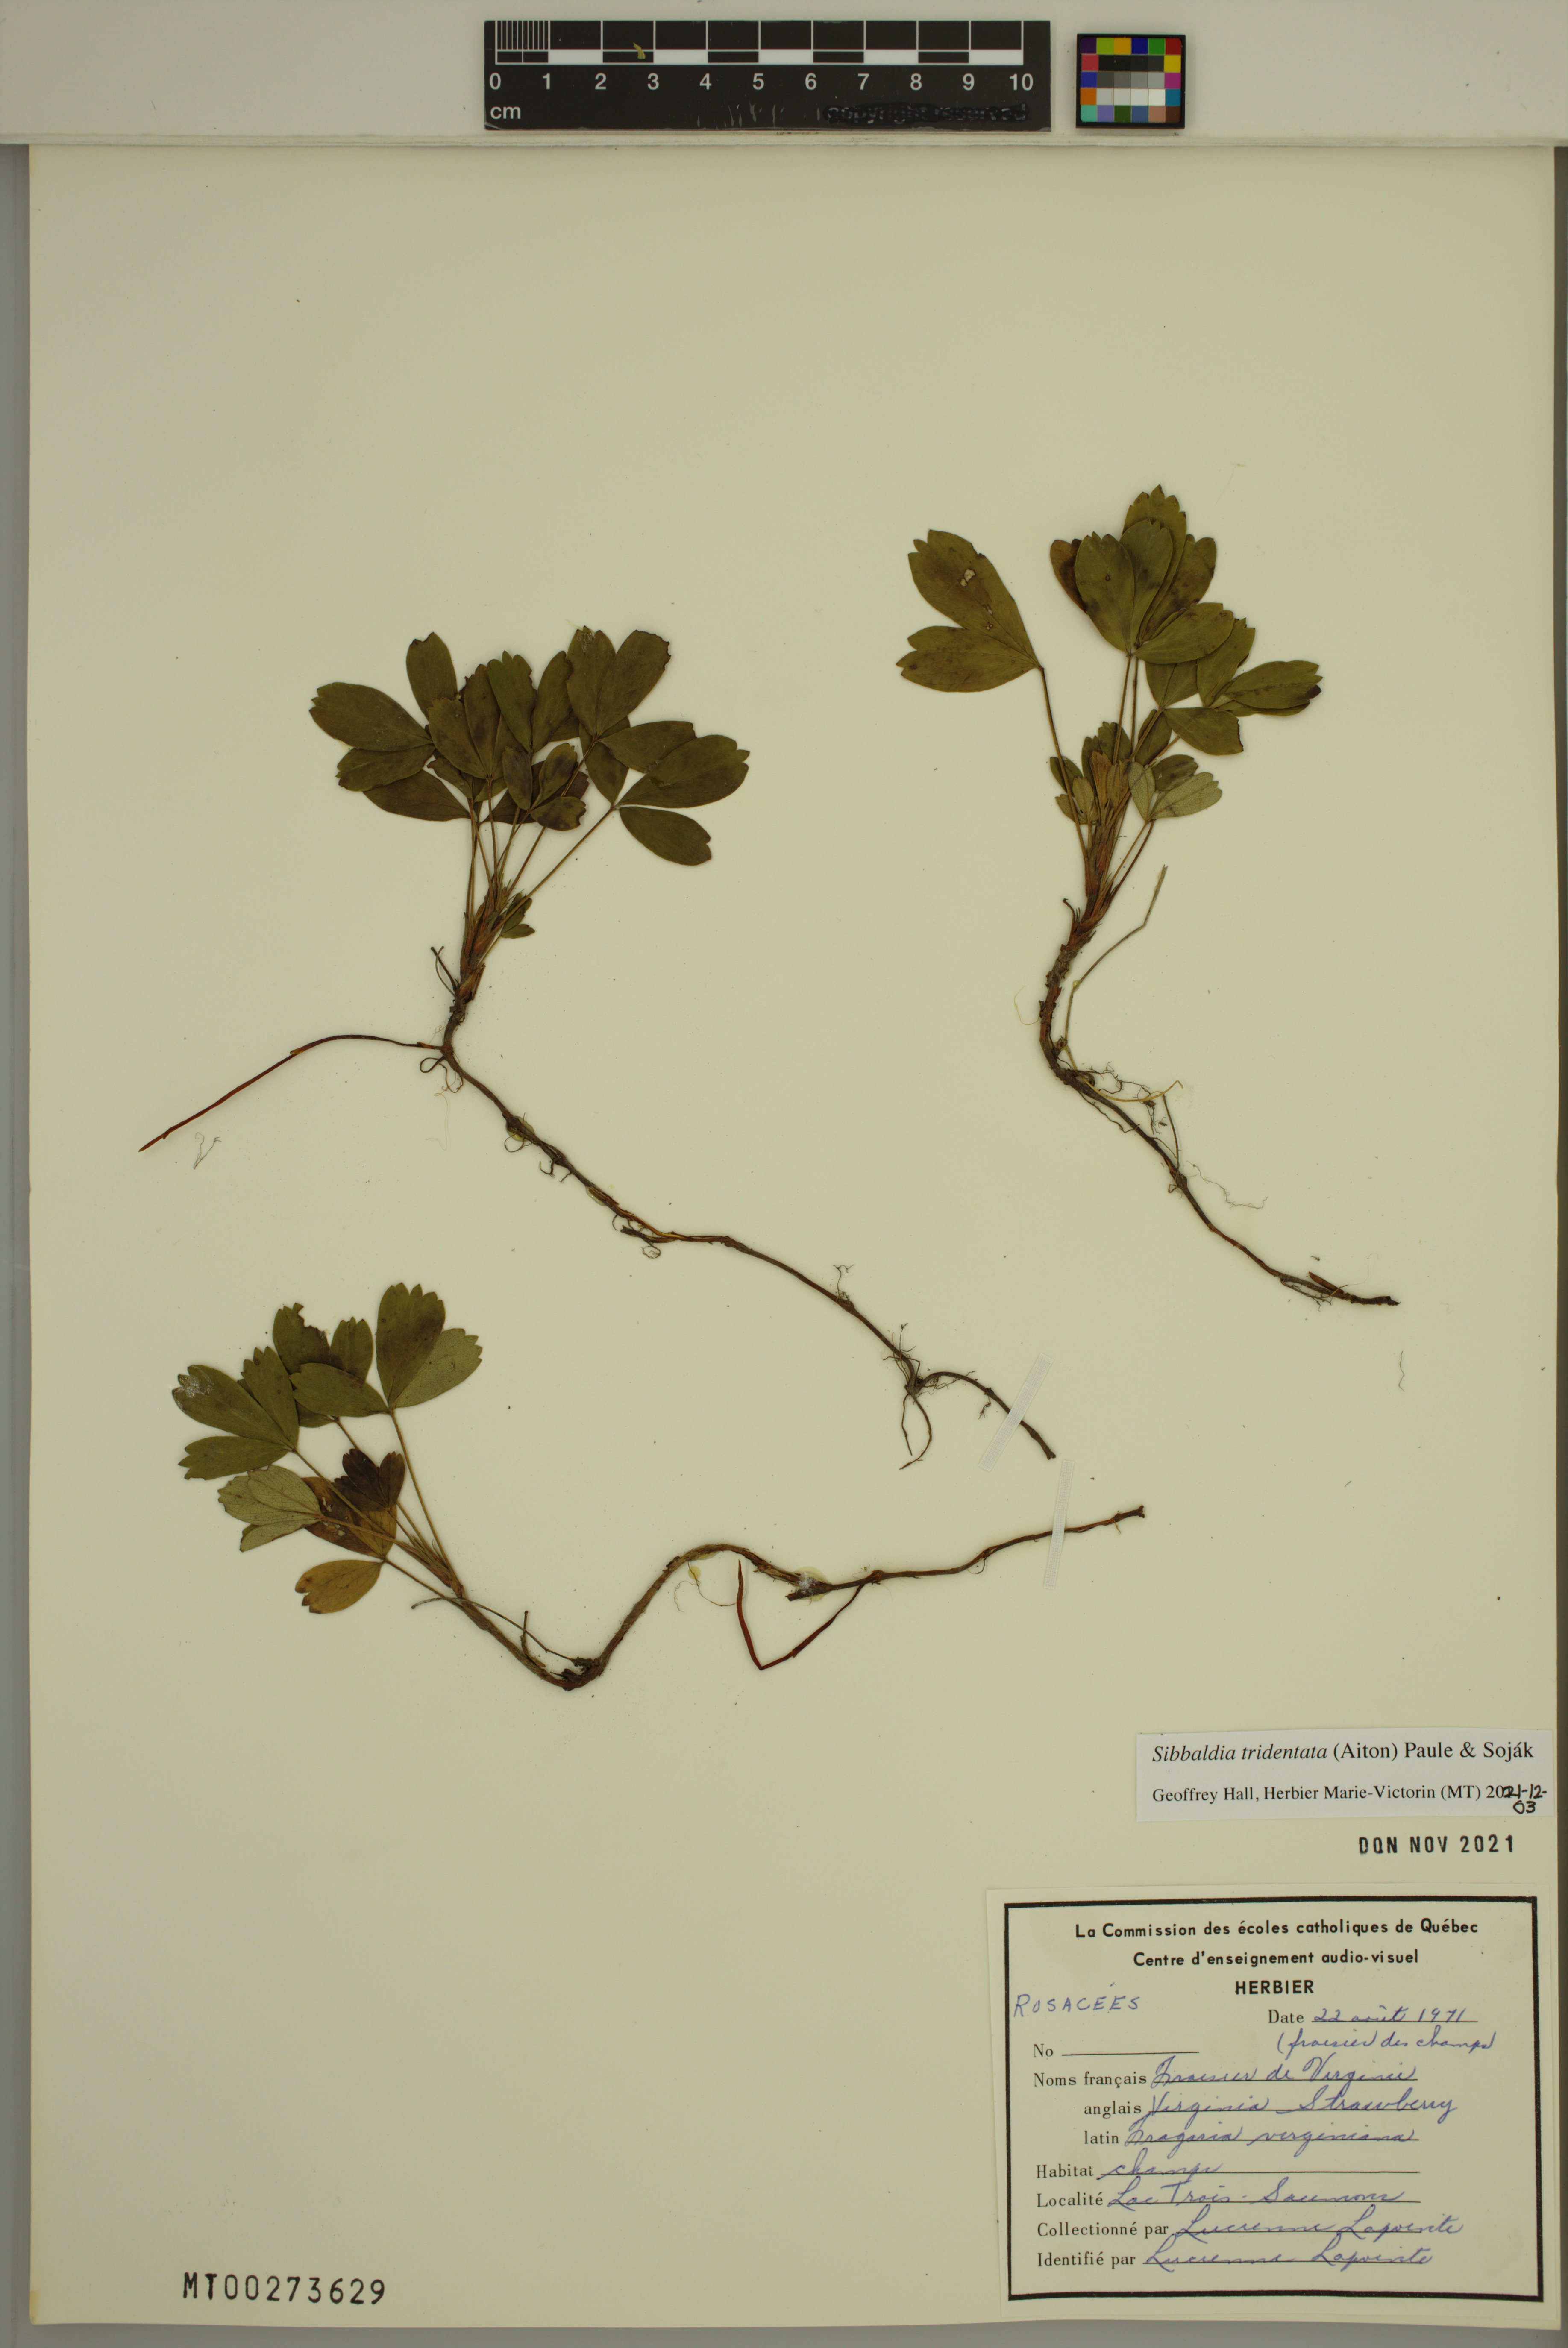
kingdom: Plantae
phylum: Tracheophyta
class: Magnoliopsida
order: Rosales
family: Rosaceae
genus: Sibbaldia
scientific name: Sibbaldia tridentata
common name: Three-toothed cinquefoil
